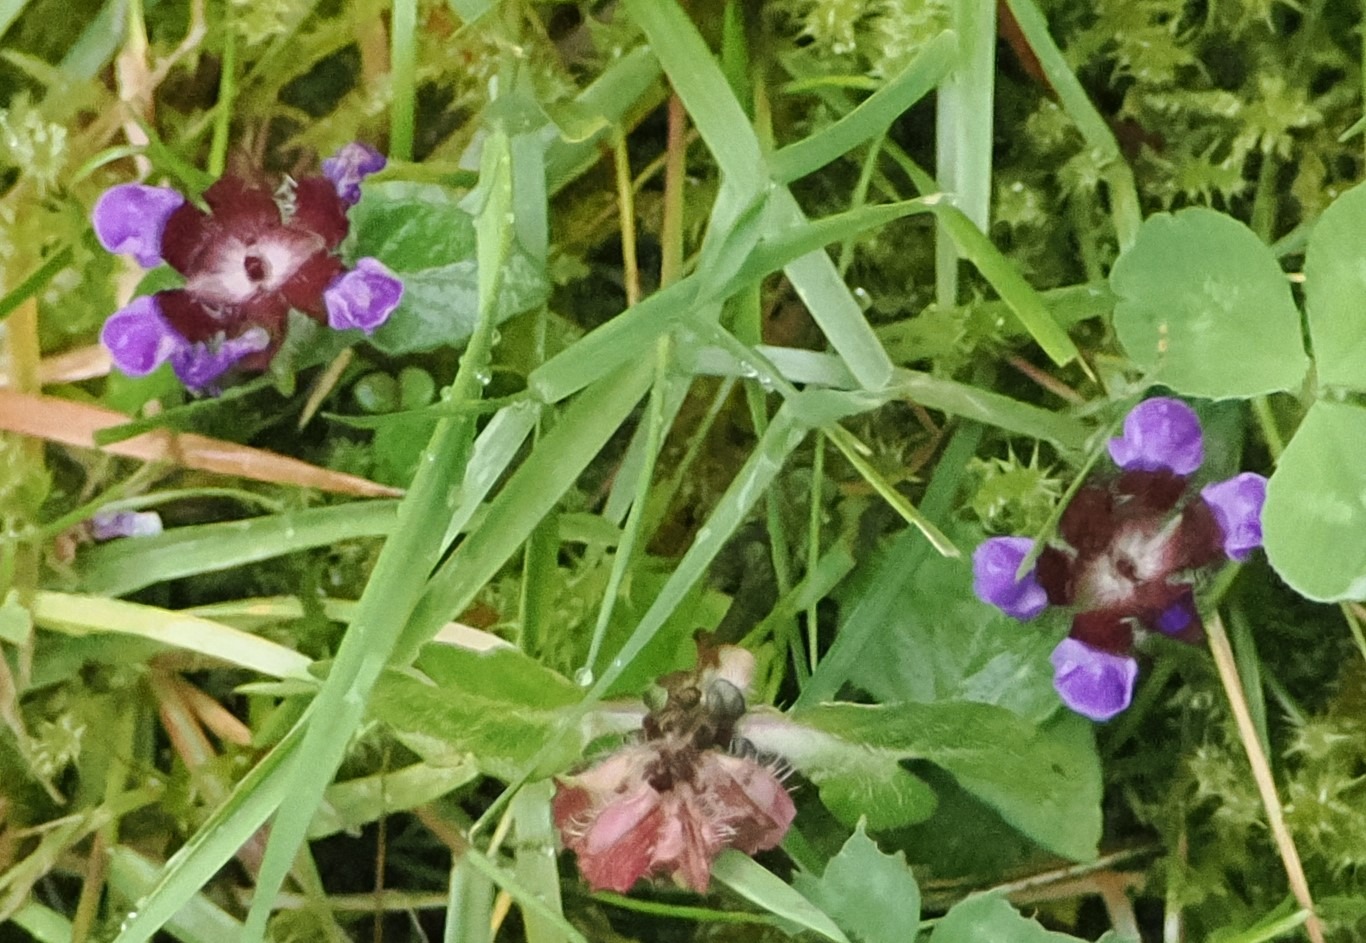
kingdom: Plantae
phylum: Tracheophyta
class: Magnoliopsida
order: Lamiales
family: Lamiaceae
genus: Prunella
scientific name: Prunella vulgaris
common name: Almindelig brunelle
